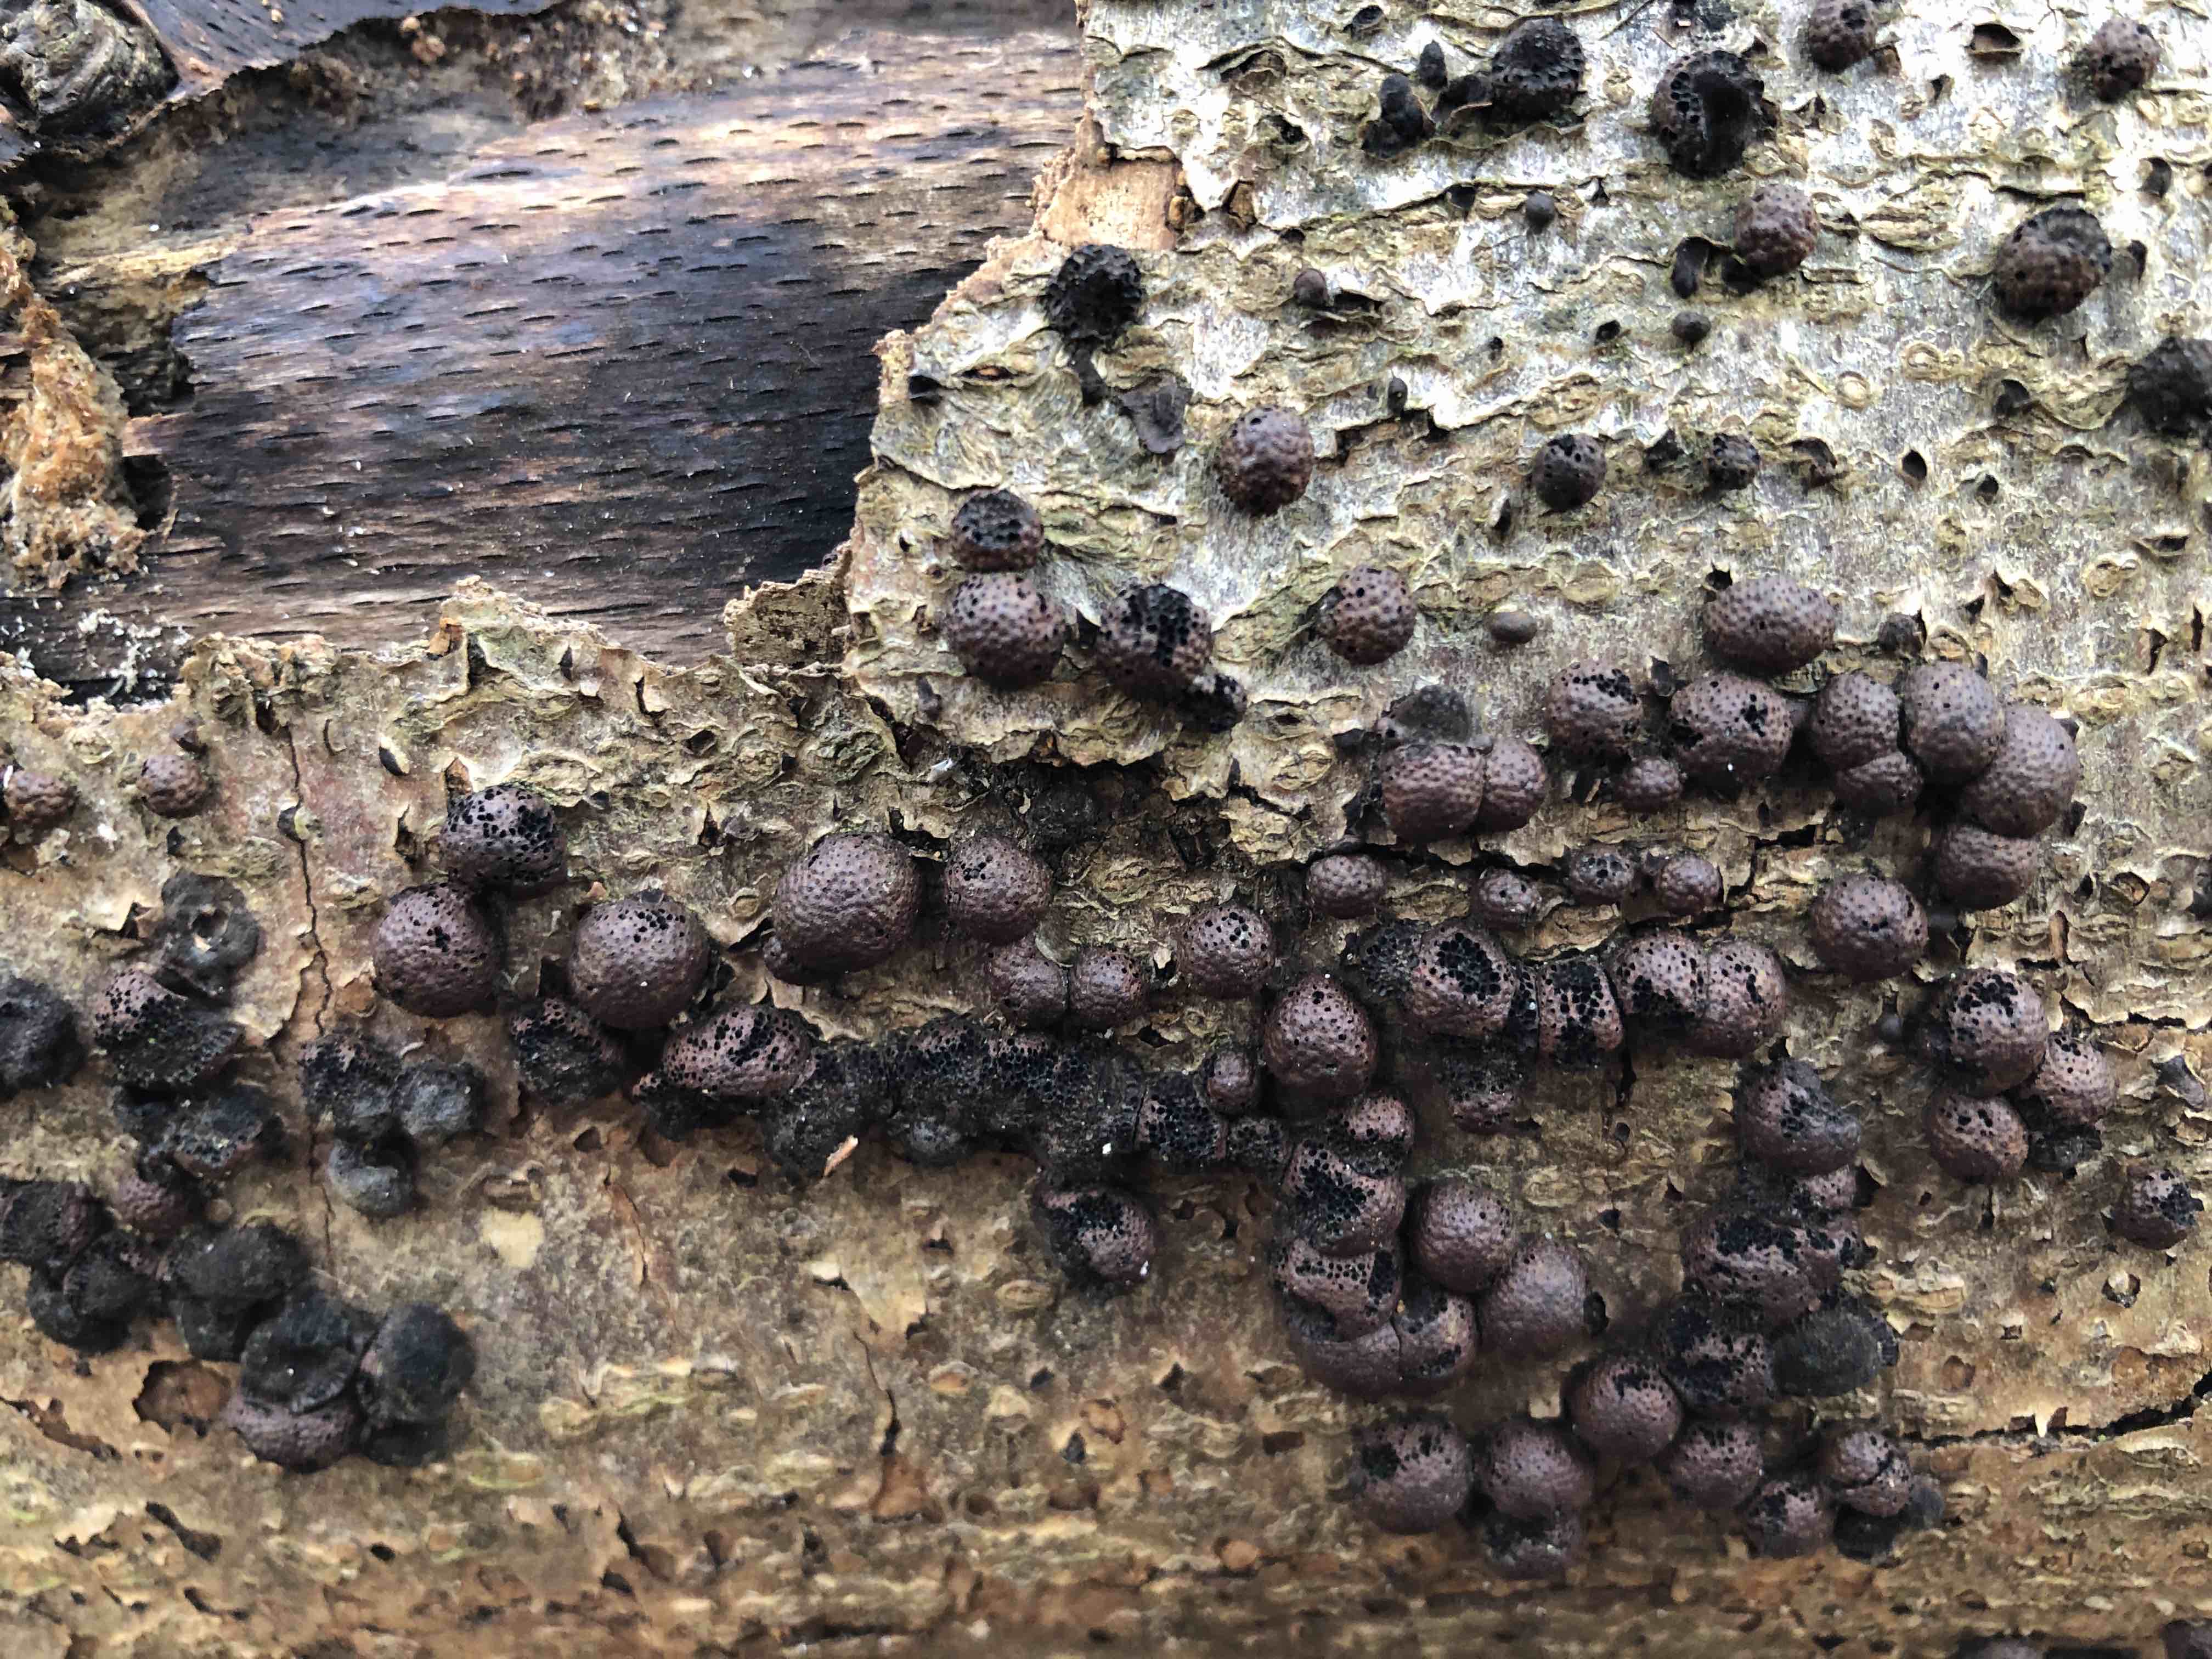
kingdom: Fungi
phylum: Ascomycota
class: Sordariomycetes
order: Xylariales
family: Hypoxylaceae
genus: Hypoxylon
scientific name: Hypoxylon fragiforme
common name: kuljordbær
